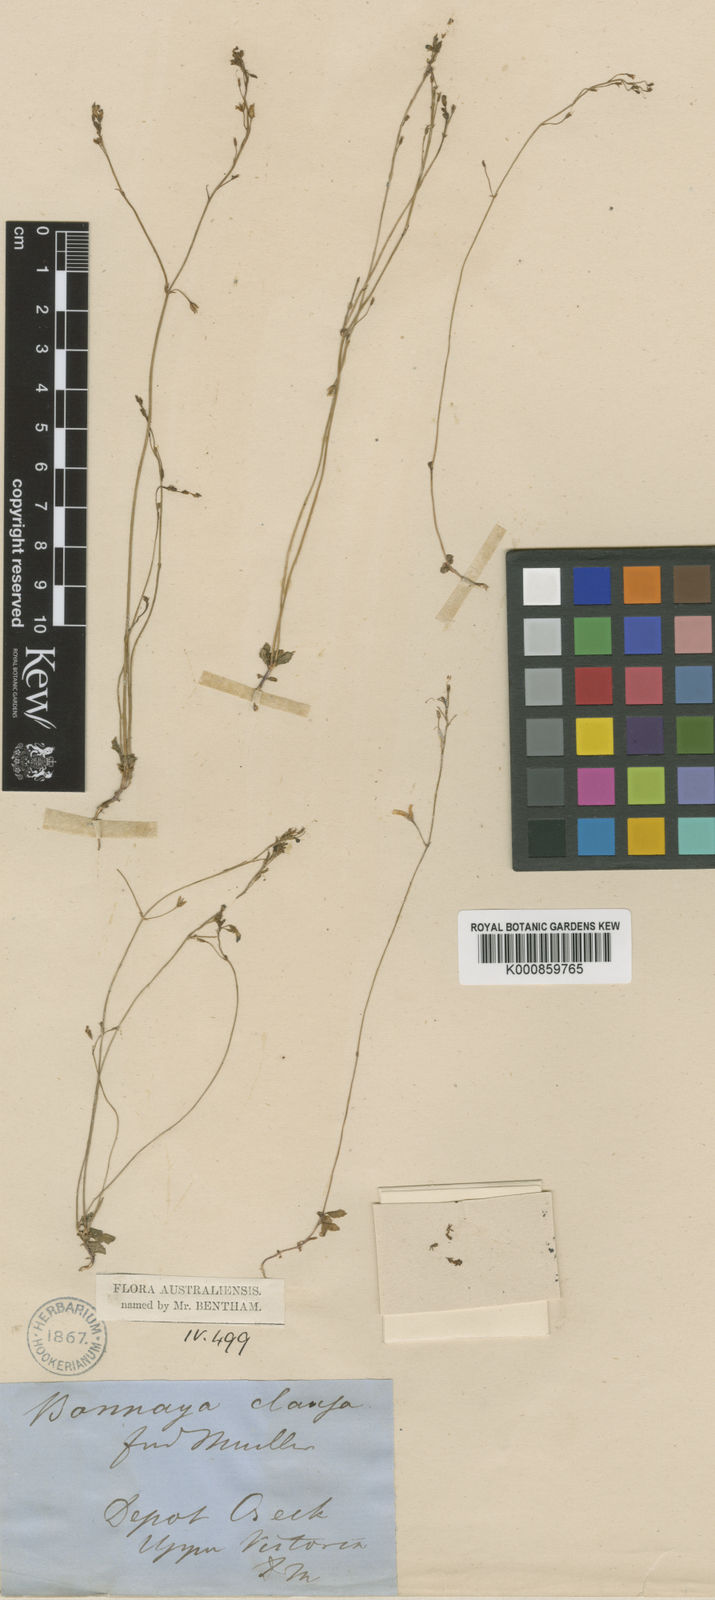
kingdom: Plantae
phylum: Tracheophyta
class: Magnoliopsida
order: Lamiales
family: Linderniaceae
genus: Vandellia
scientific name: Vandellia clausa
